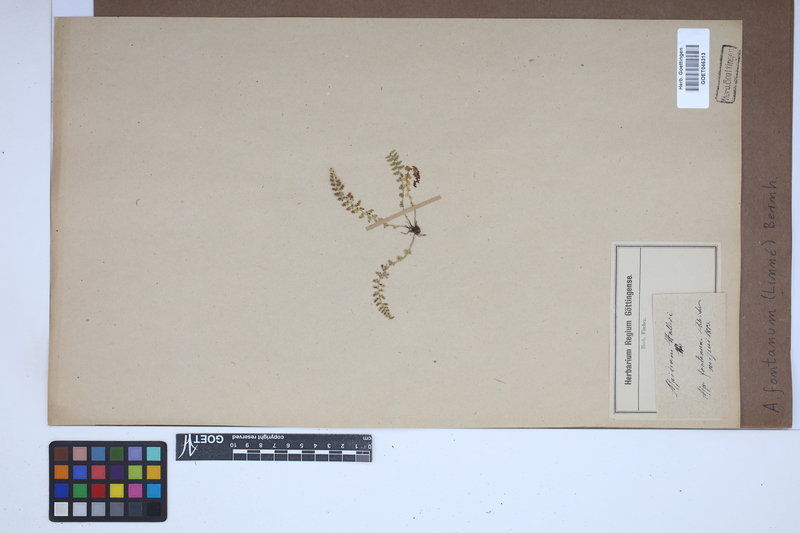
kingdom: Plantae
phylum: Tracheophyta
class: Polypodiopsida
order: Polypodiales
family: Aspleniaceae
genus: Asplenium
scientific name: Asplenium fontanum
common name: Fountain spleenwort
